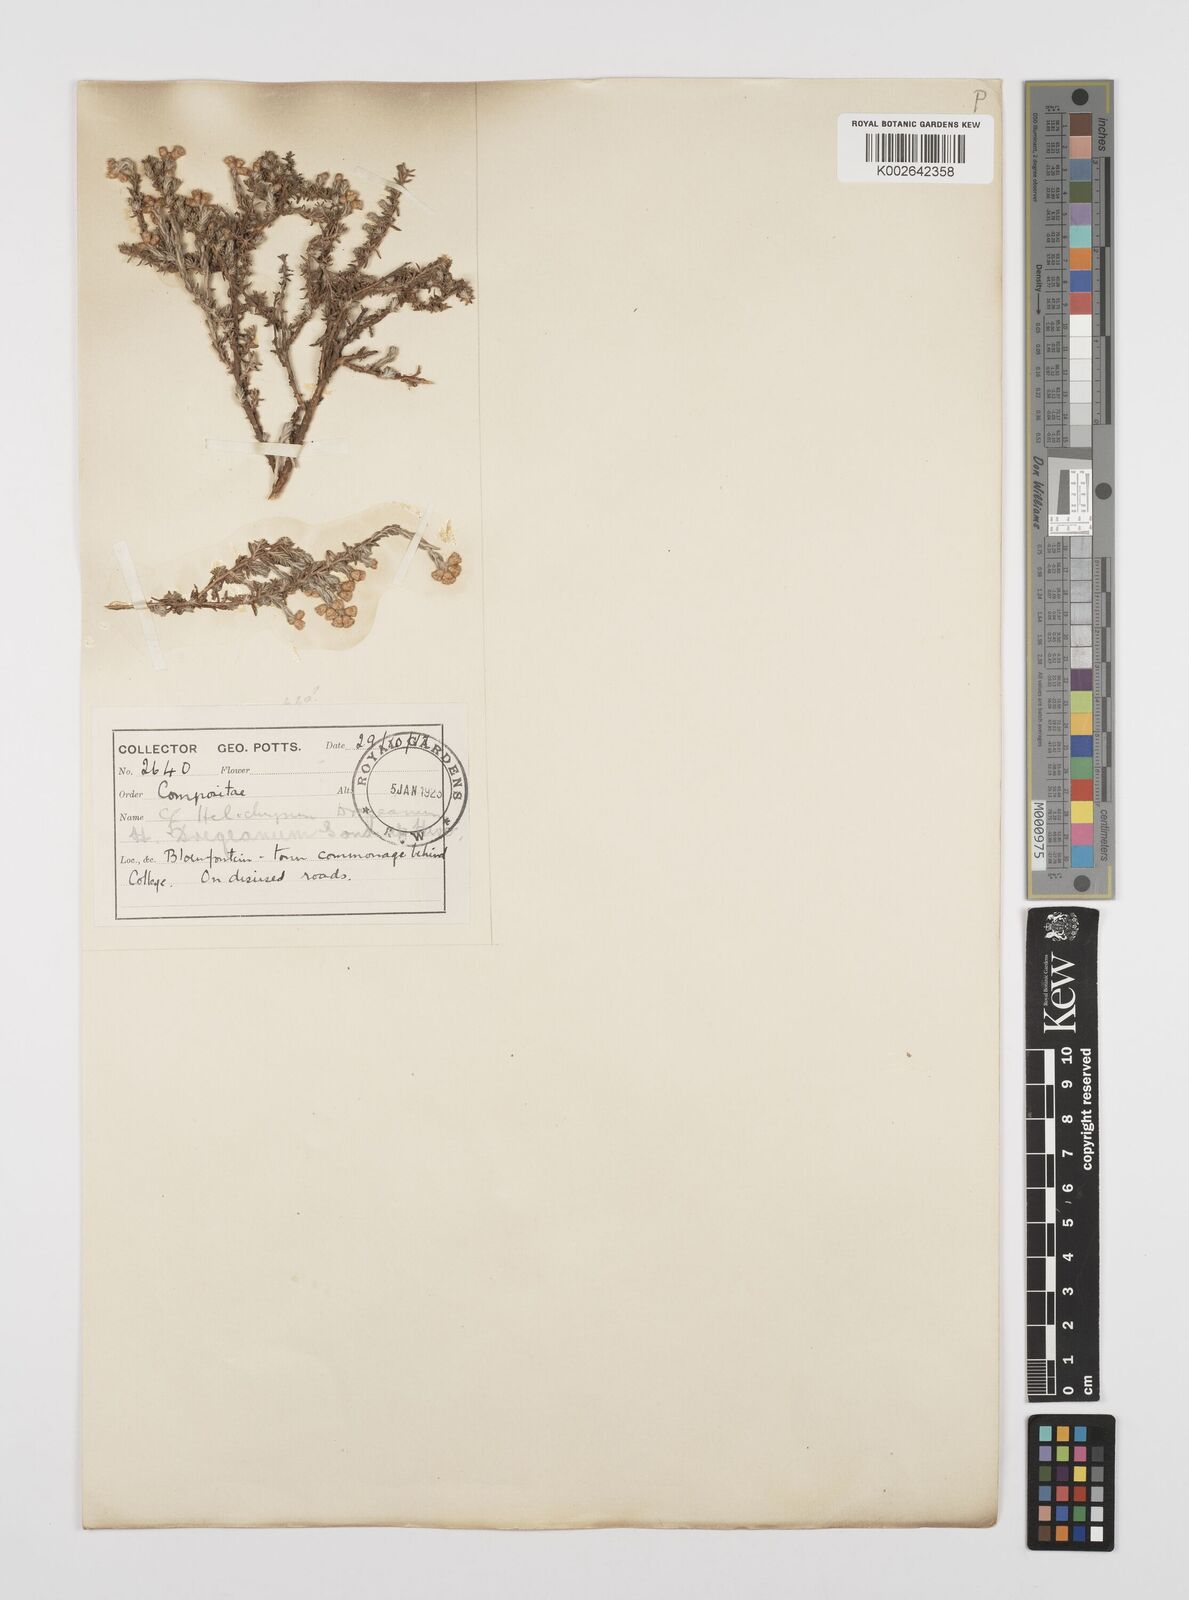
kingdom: Plantae
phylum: Tracheophyta
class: Magnoliopsida
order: Asterales
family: Asteraceae
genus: Helichrysum
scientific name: Helichrysum dregeanum
